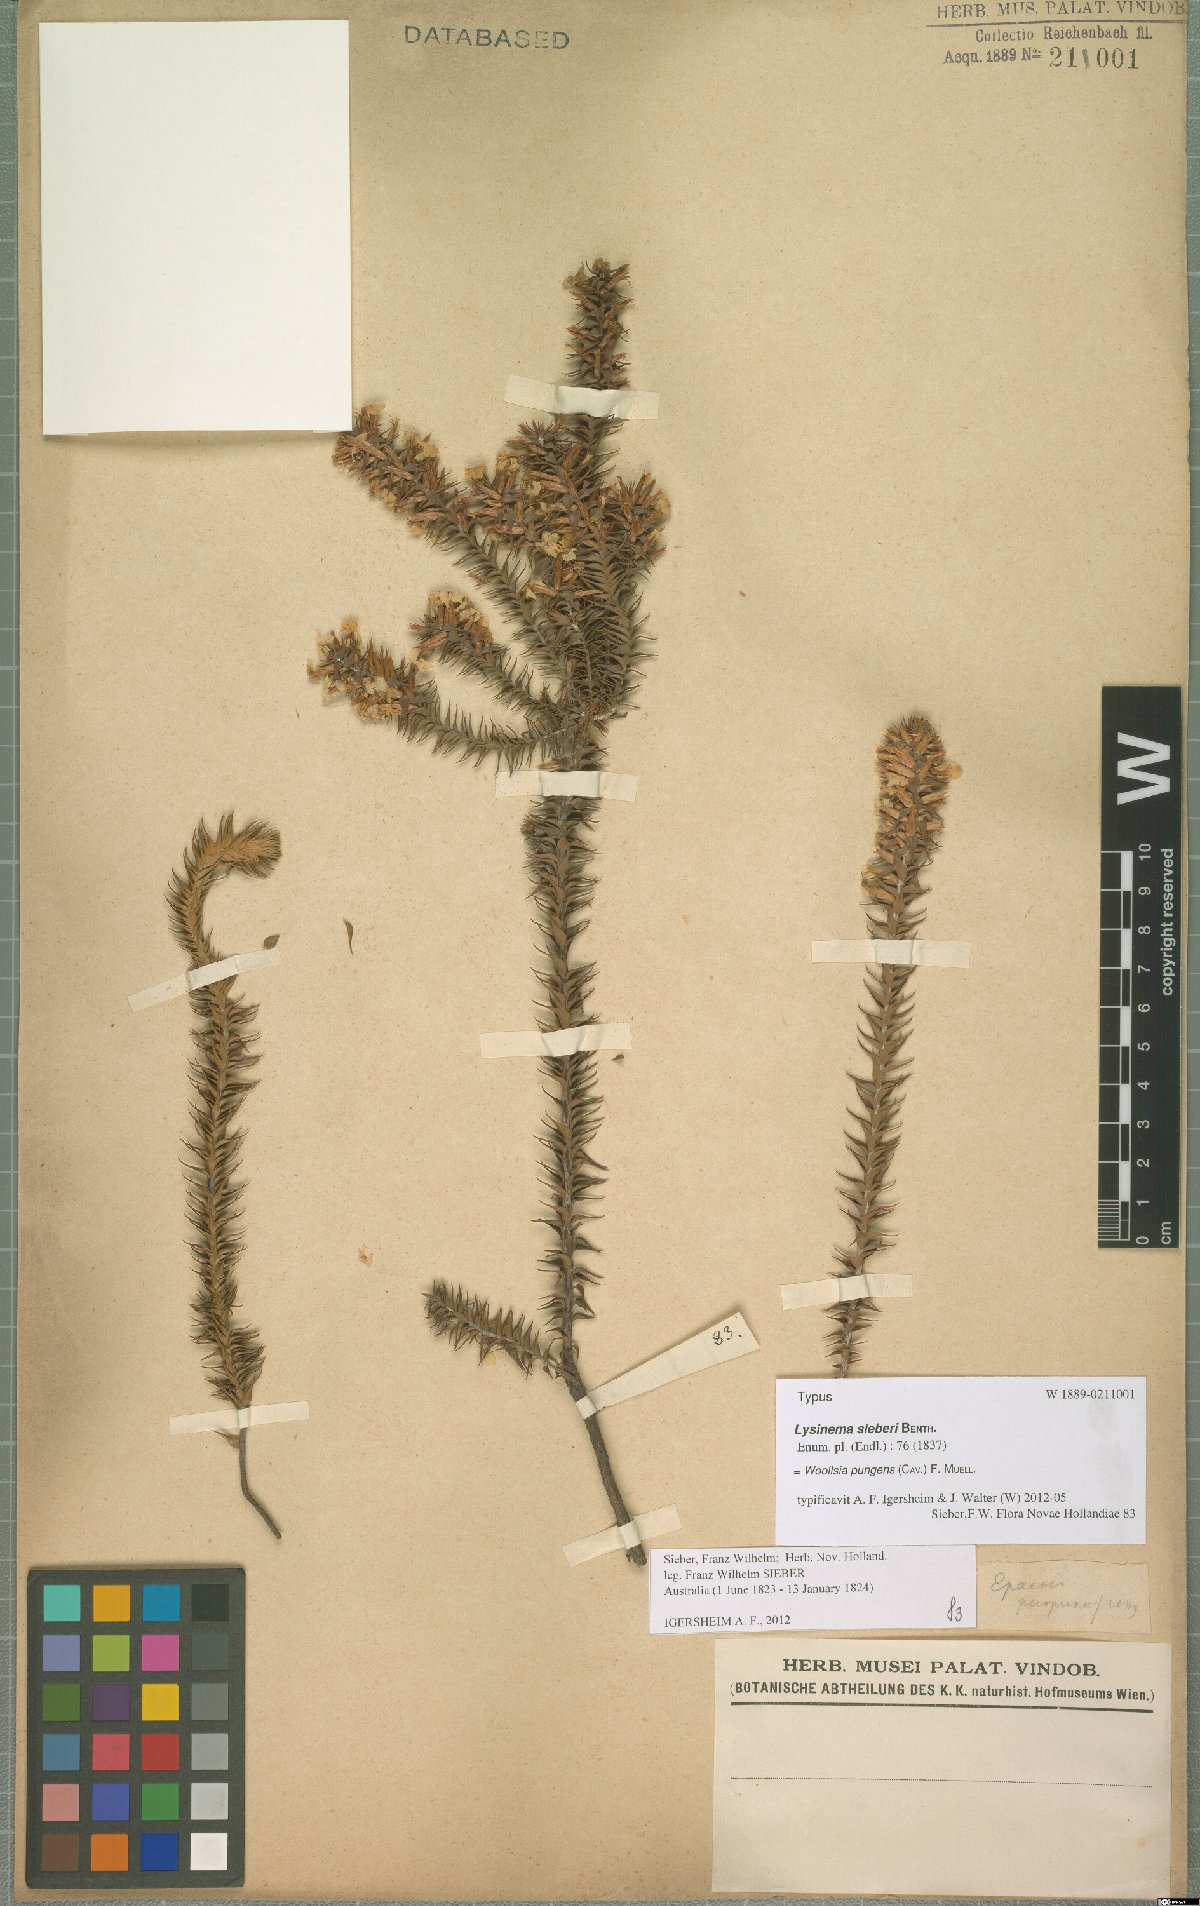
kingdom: Plantae
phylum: Tracheophyta
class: Magnoliopsida
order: Ericales
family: Ericaceae
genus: Woollsia
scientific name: Woollsia pungens
